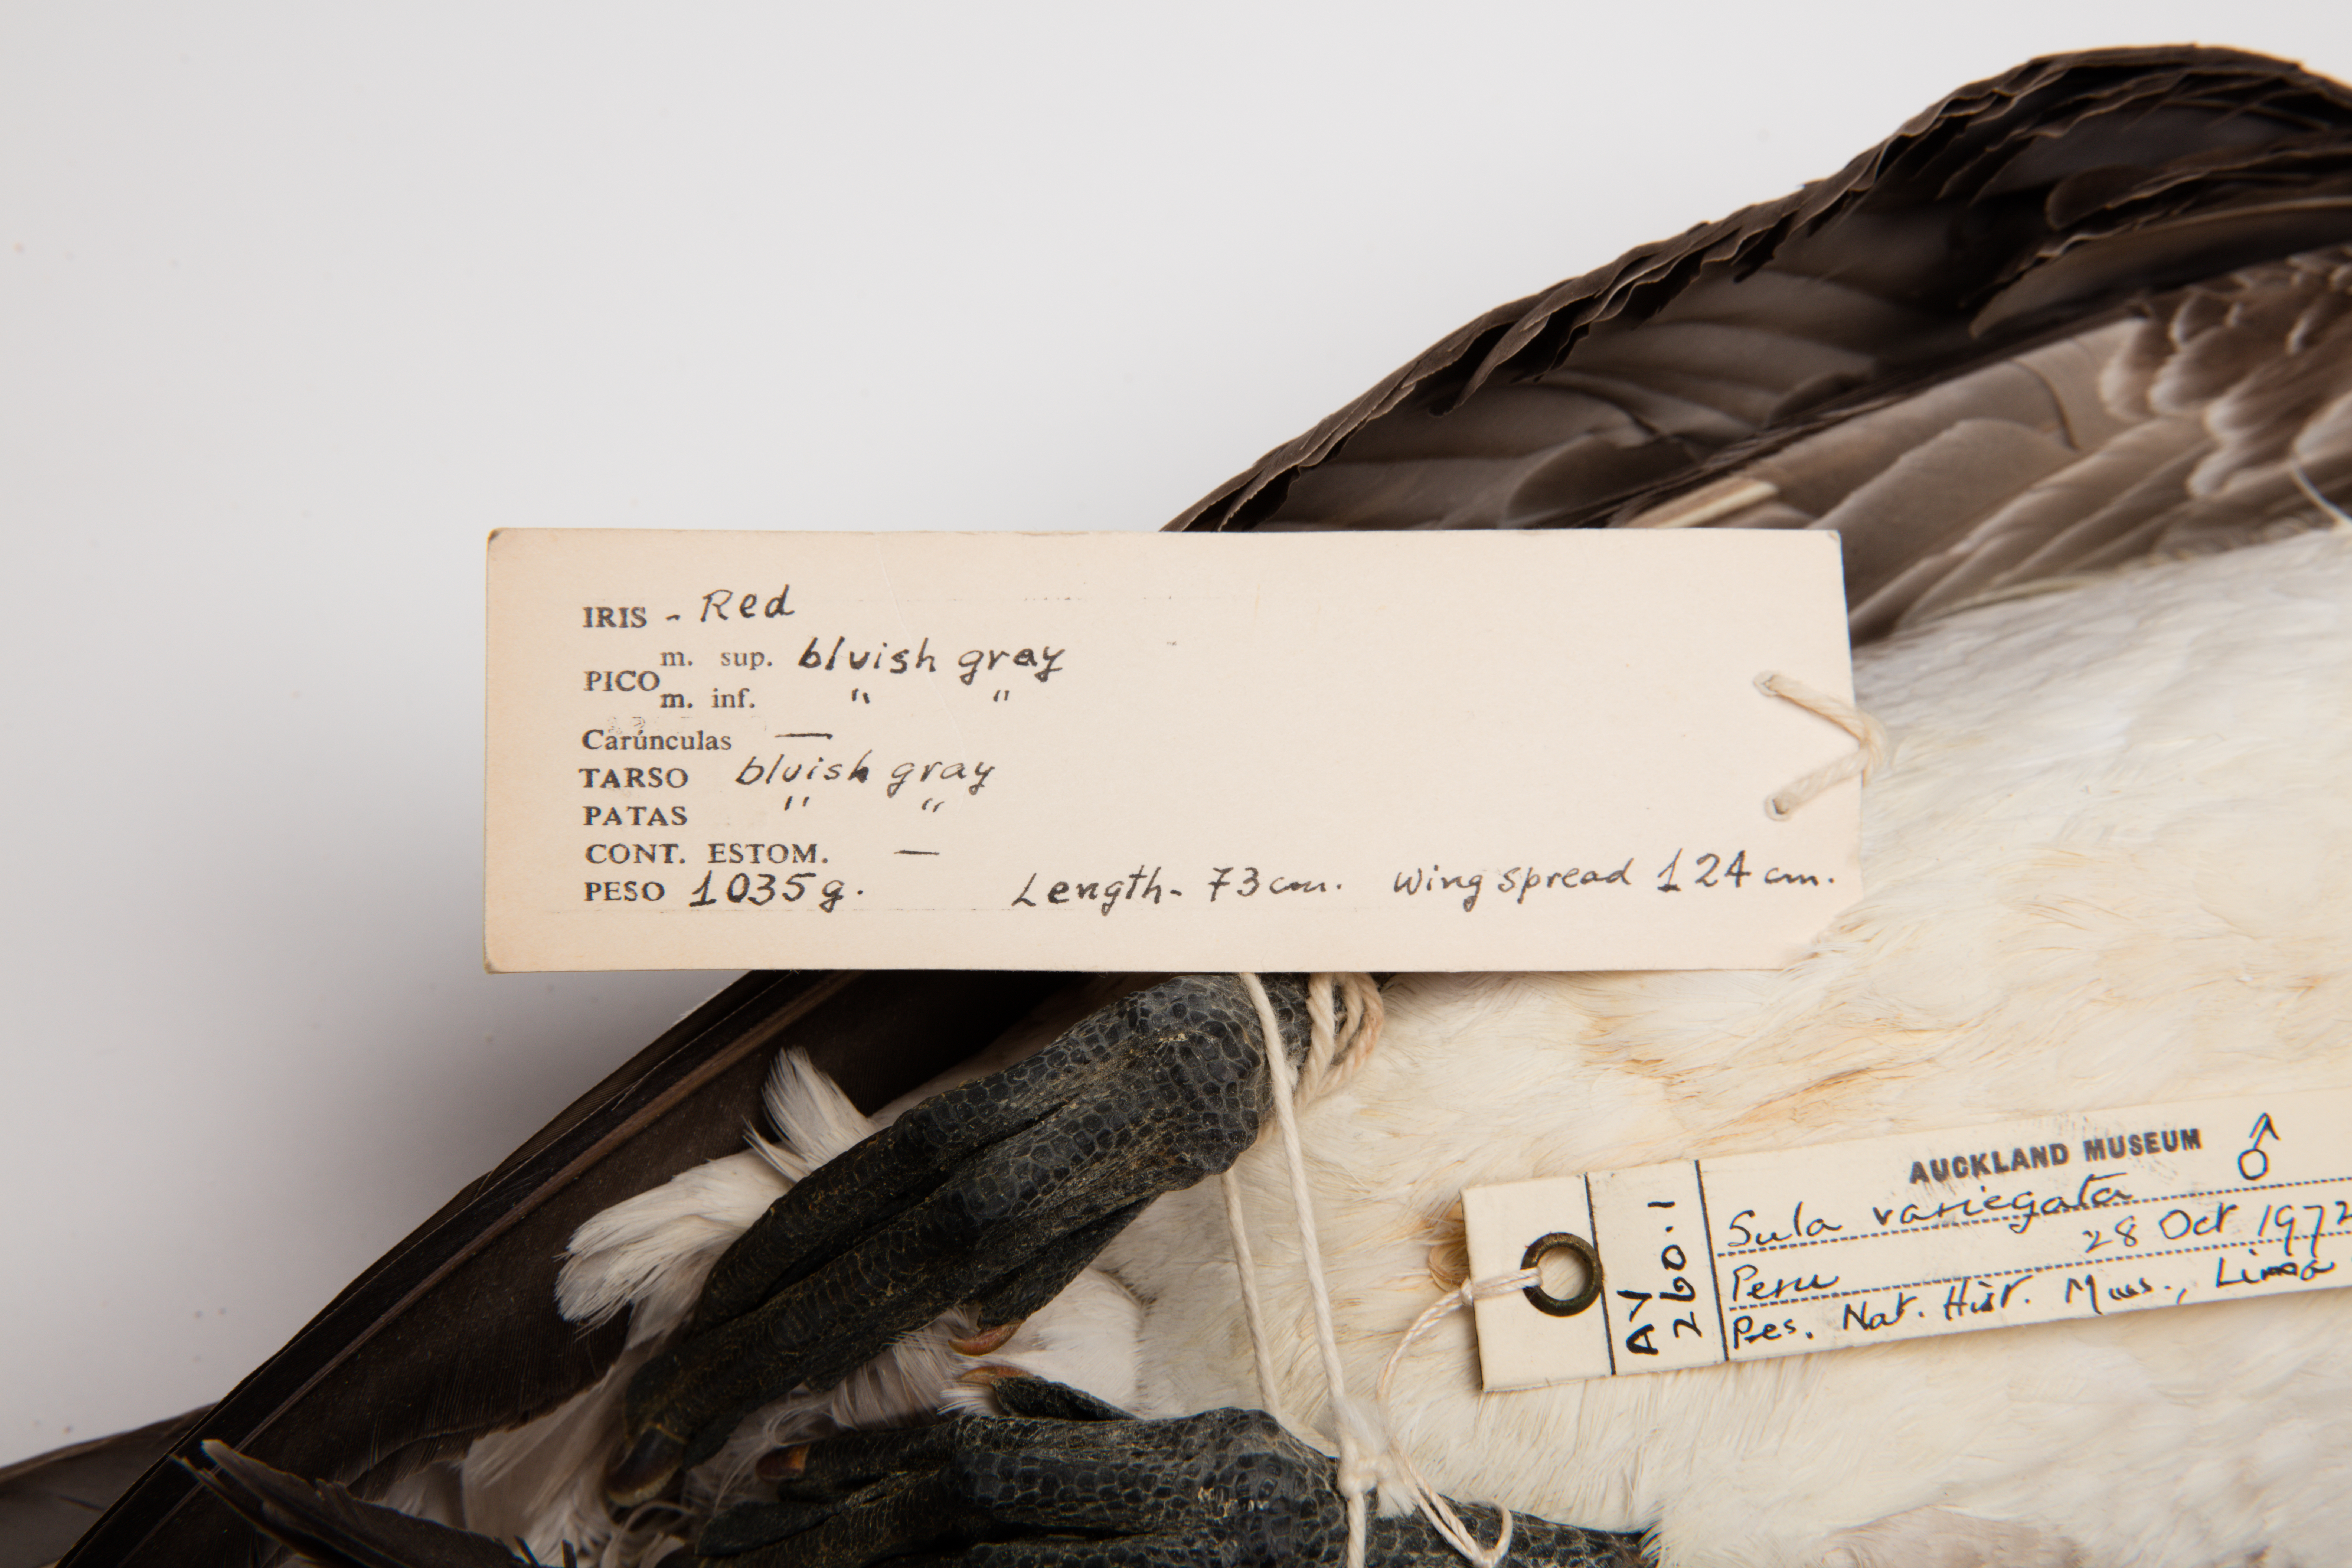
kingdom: Animalia
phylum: Chordata
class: Aves
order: Suliformes
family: Sulidae
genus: Sula
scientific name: Sula variegata
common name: Peruvian booby
